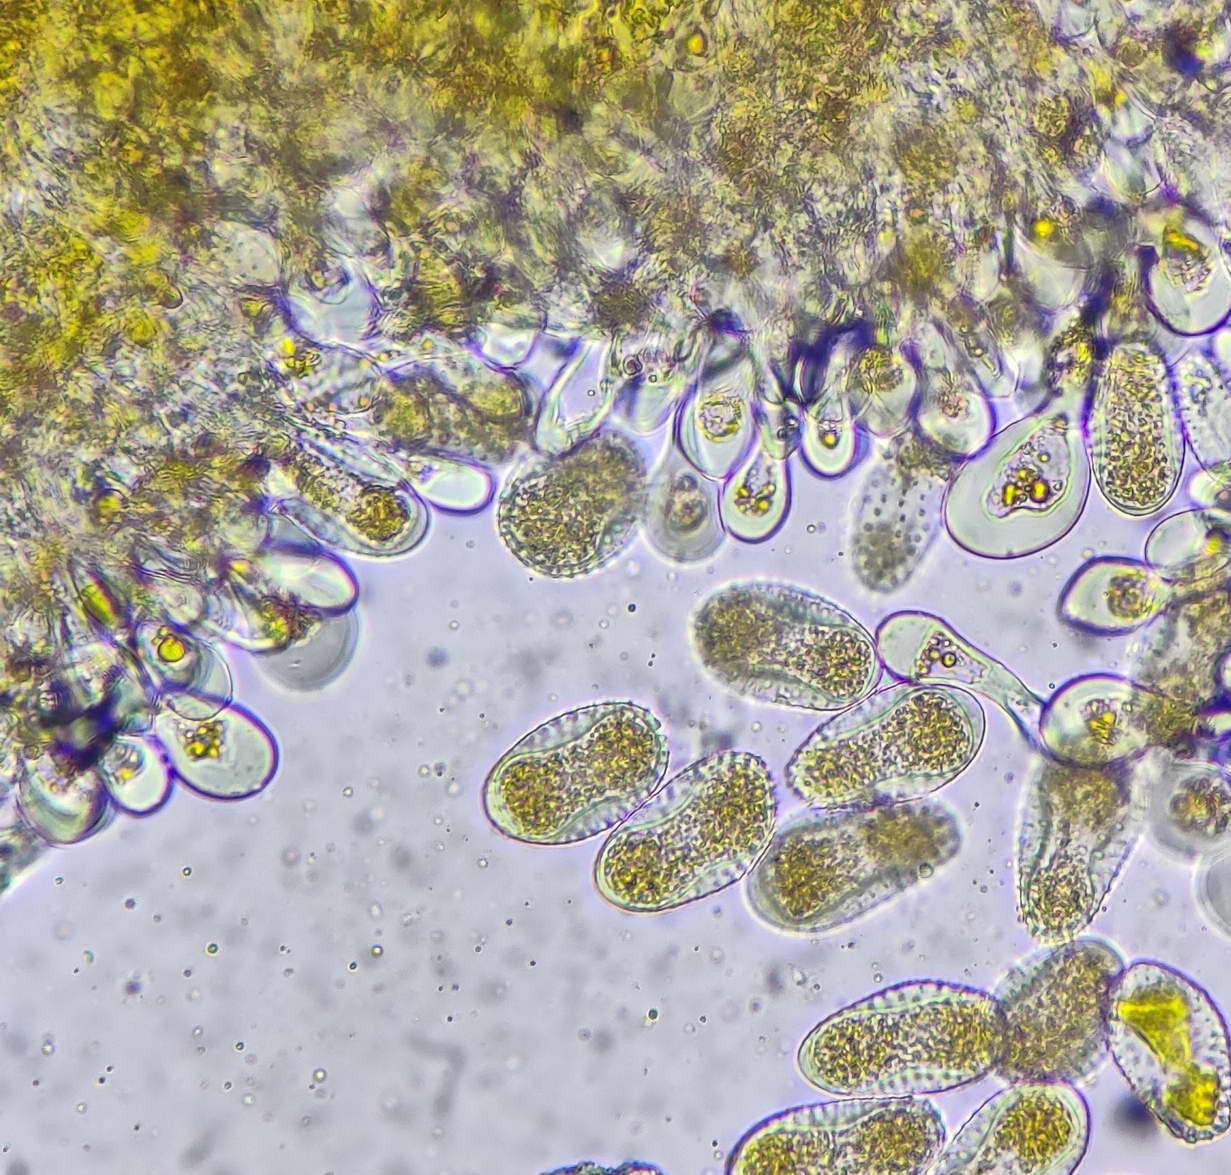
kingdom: Fungi
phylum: Basidiomycota
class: Pucciniomycetes
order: Pucciniales
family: Melampsoraceae
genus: Melampsora
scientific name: Melampsora laricis-populina
